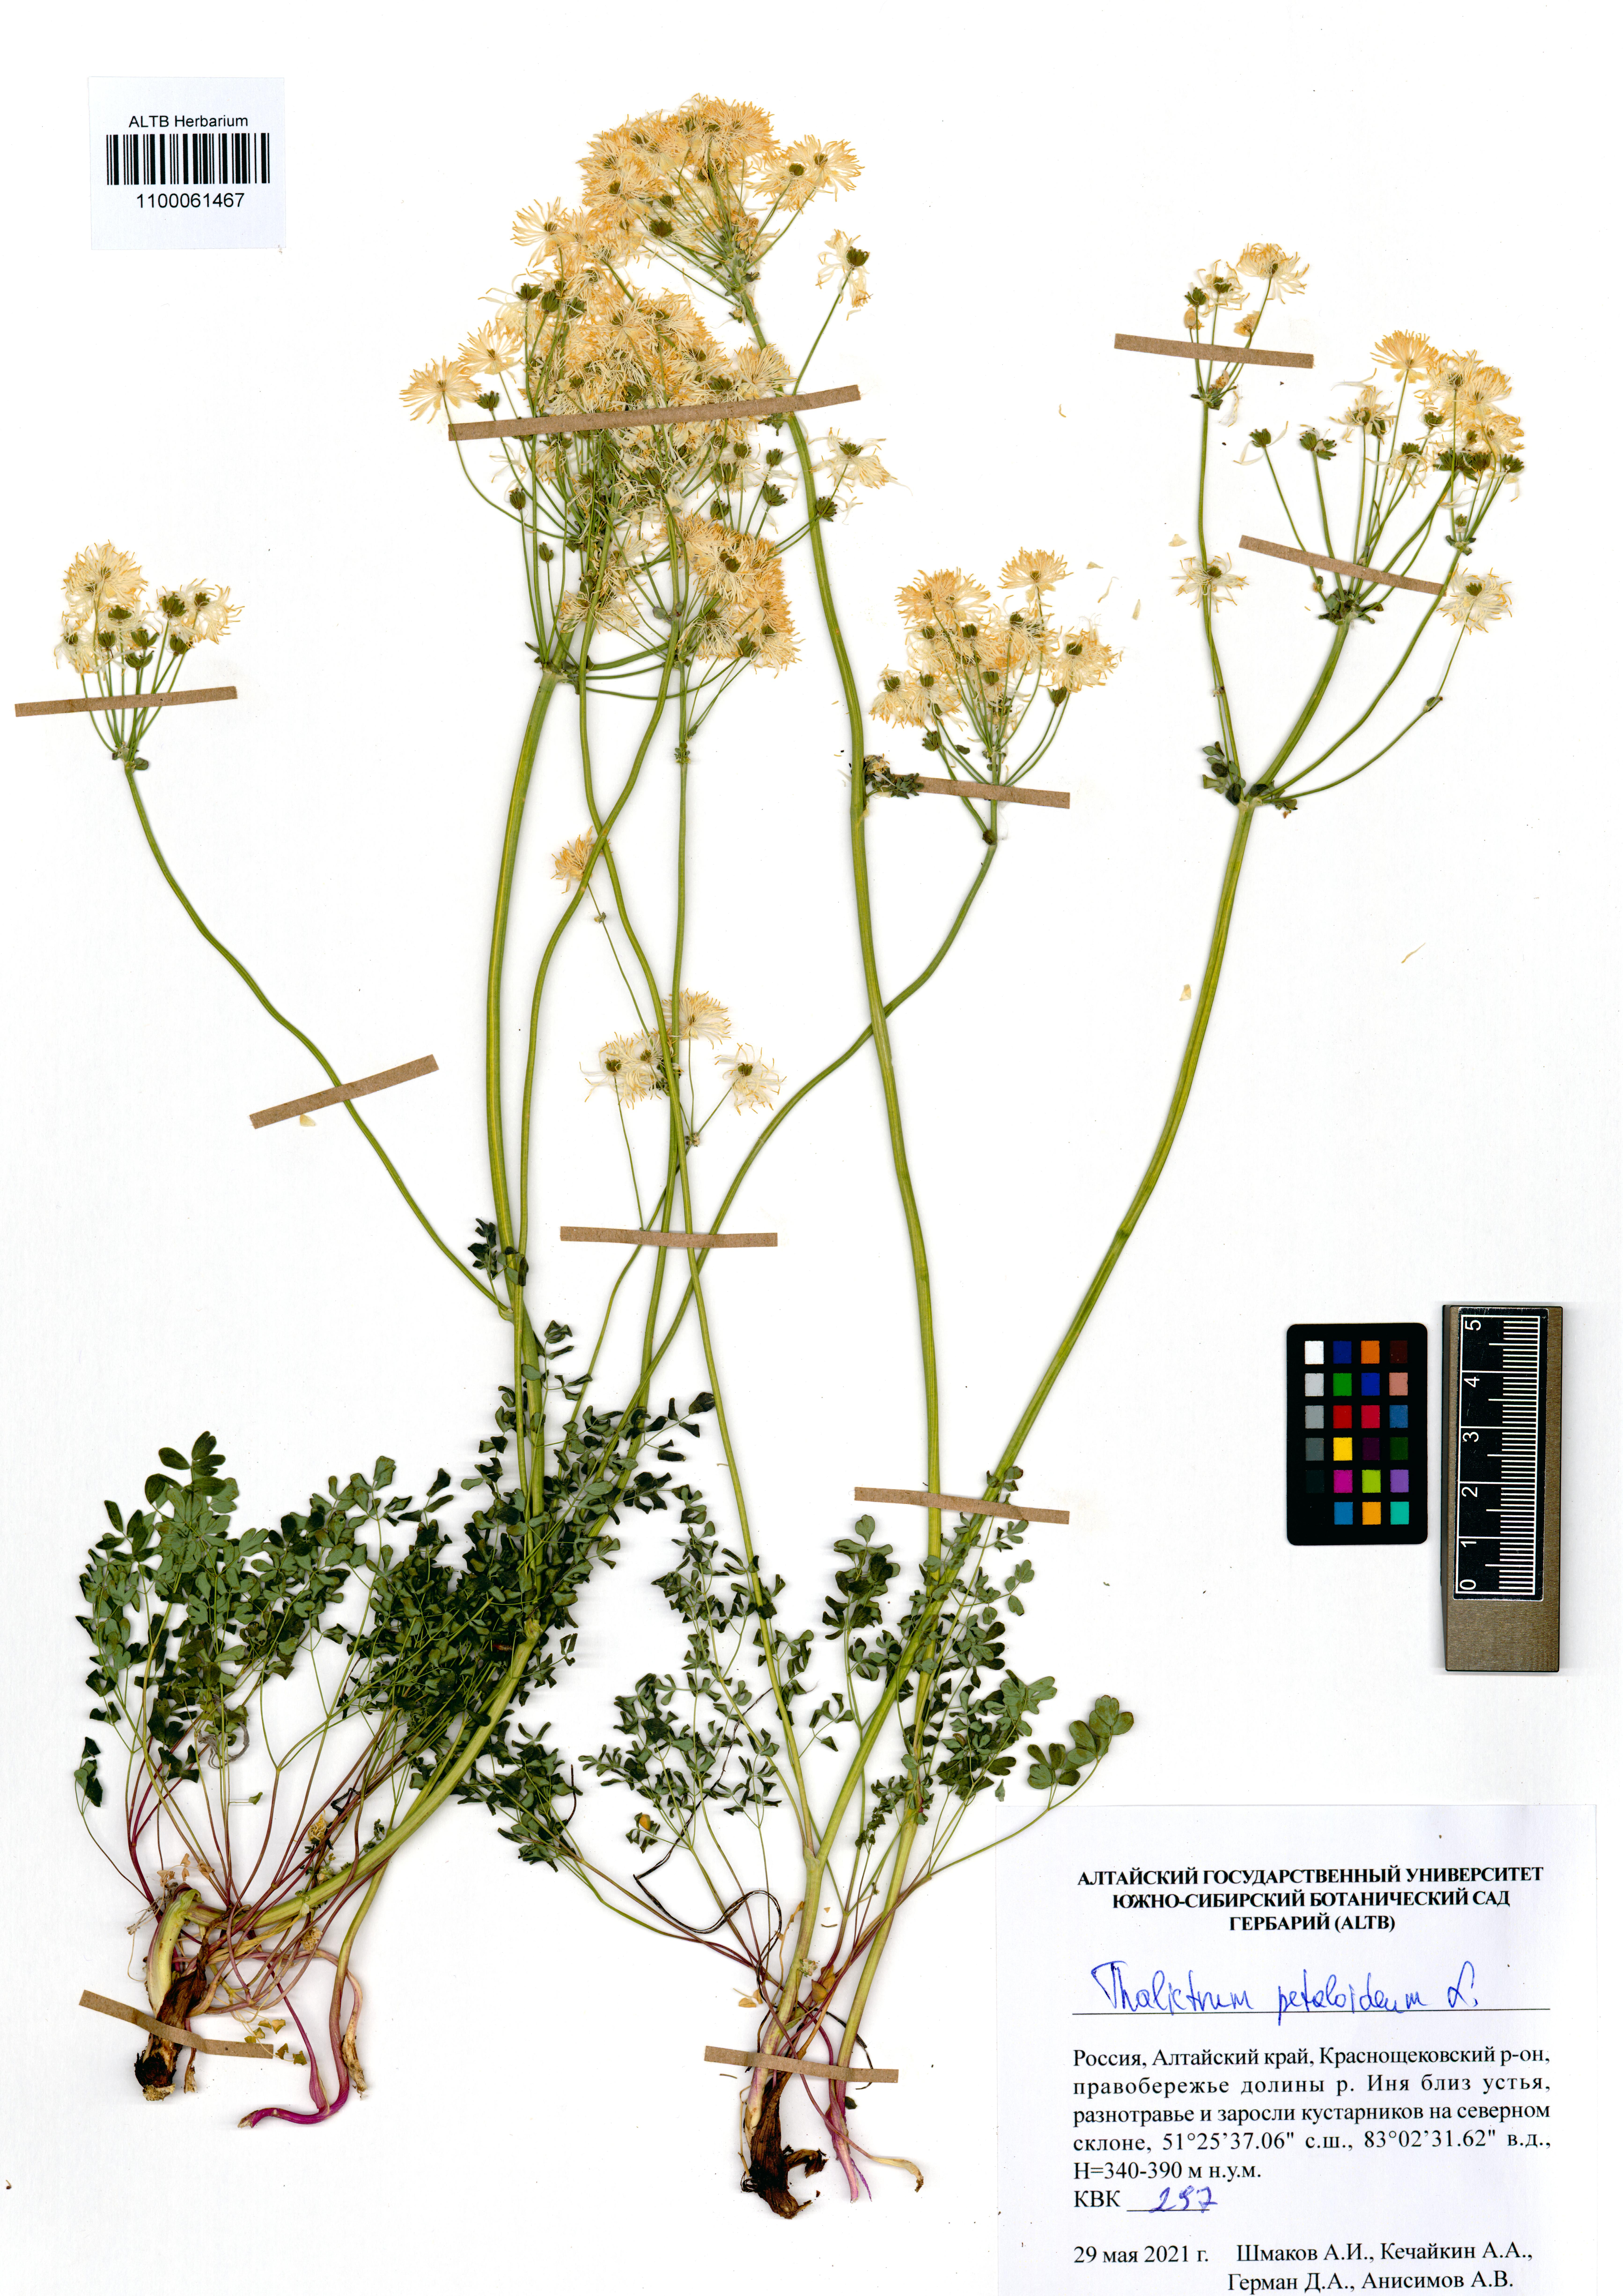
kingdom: Plantae
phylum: Tracheophyta
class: Magnoliopsida
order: Ranunculales
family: Ranunculaceae
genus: Thalictrum
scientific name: Thalictrum petaloideum
